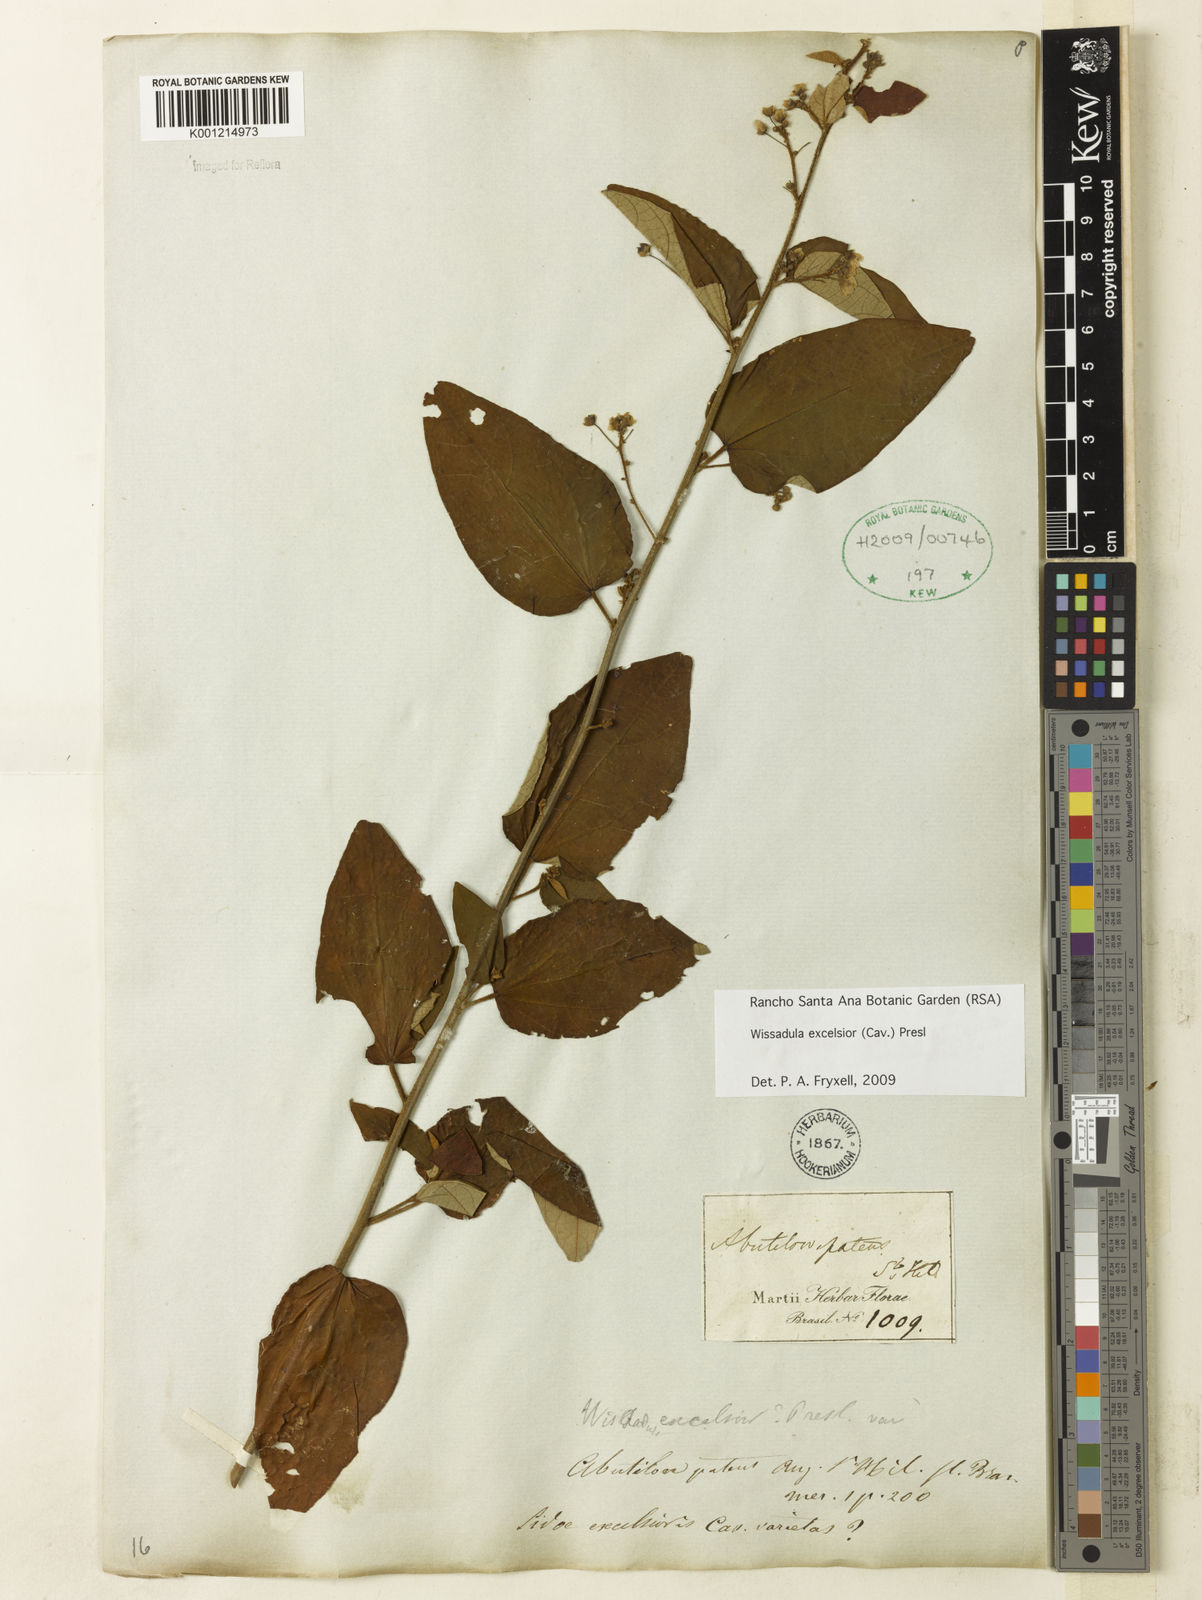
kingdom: Plantae
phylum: Tracheophyta
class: Magnoliopsida
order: Malvales
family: Malvaceae
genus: Wissadula
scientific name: Wissadula excelsior
